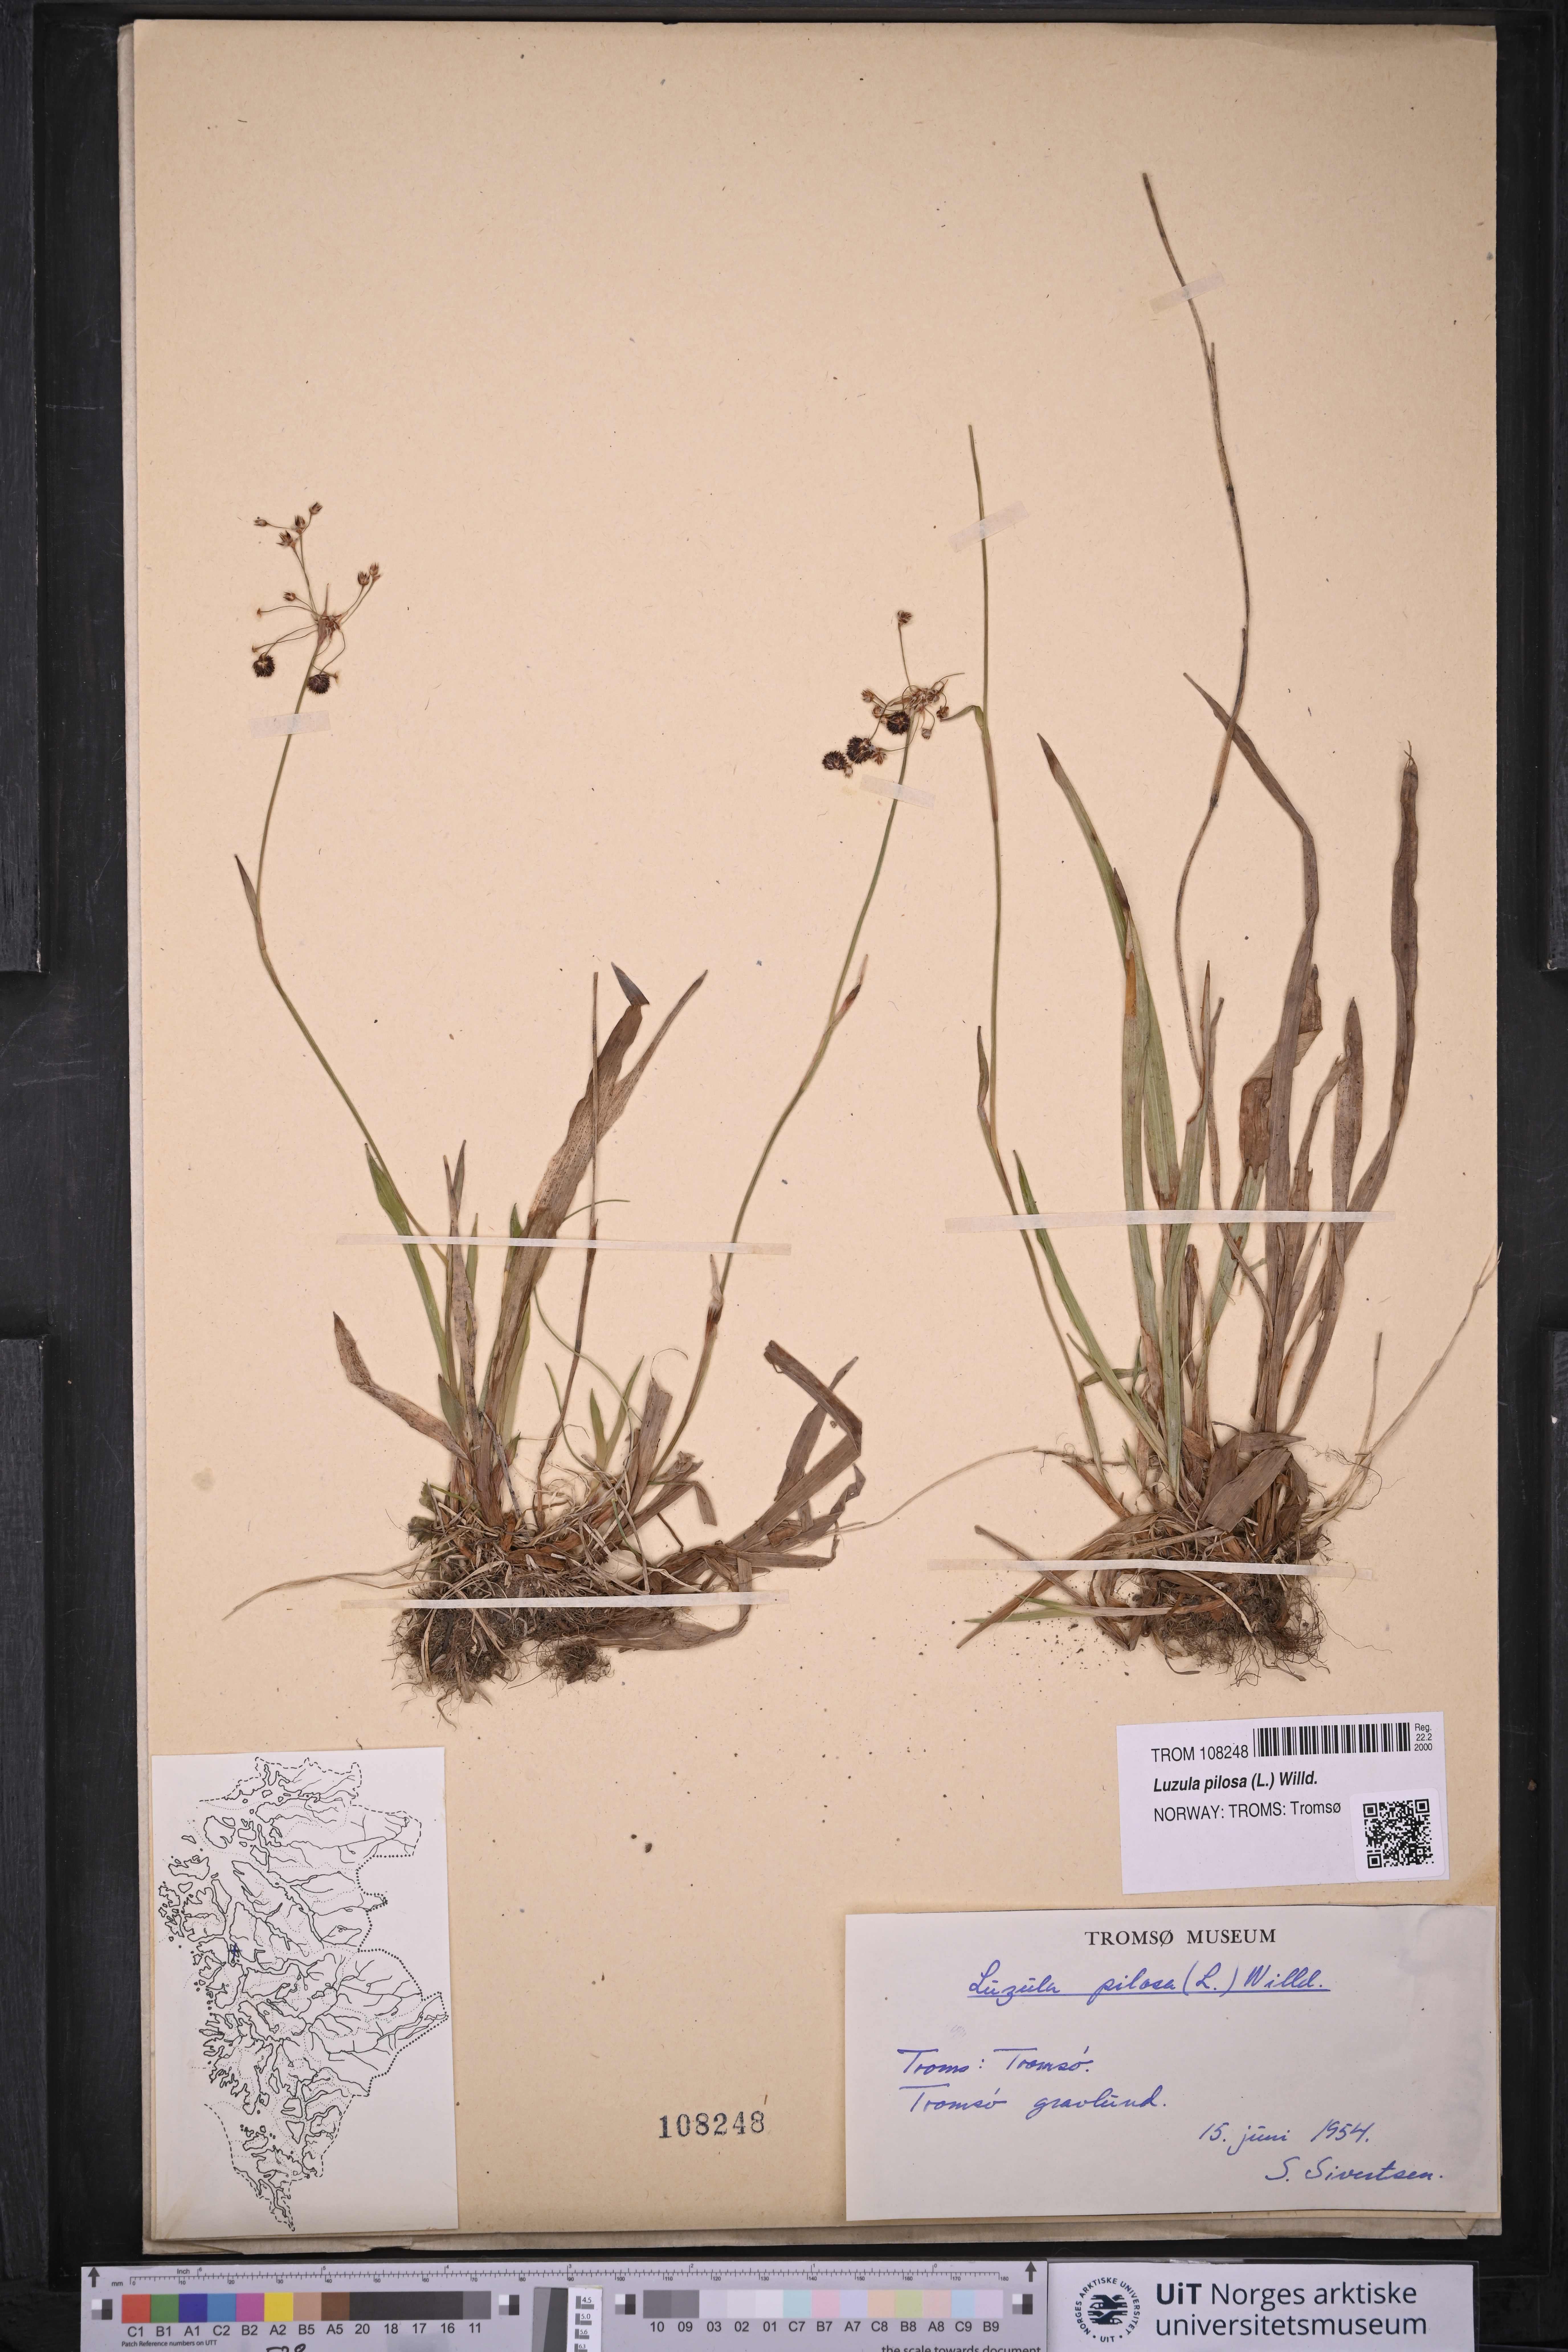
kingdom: Plantae
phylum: Tracheophyta
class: Liliopsida
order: Poales
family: Juncaceae
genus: Luzula
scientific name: Luzula pilosa
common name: Hairy wood-rush
